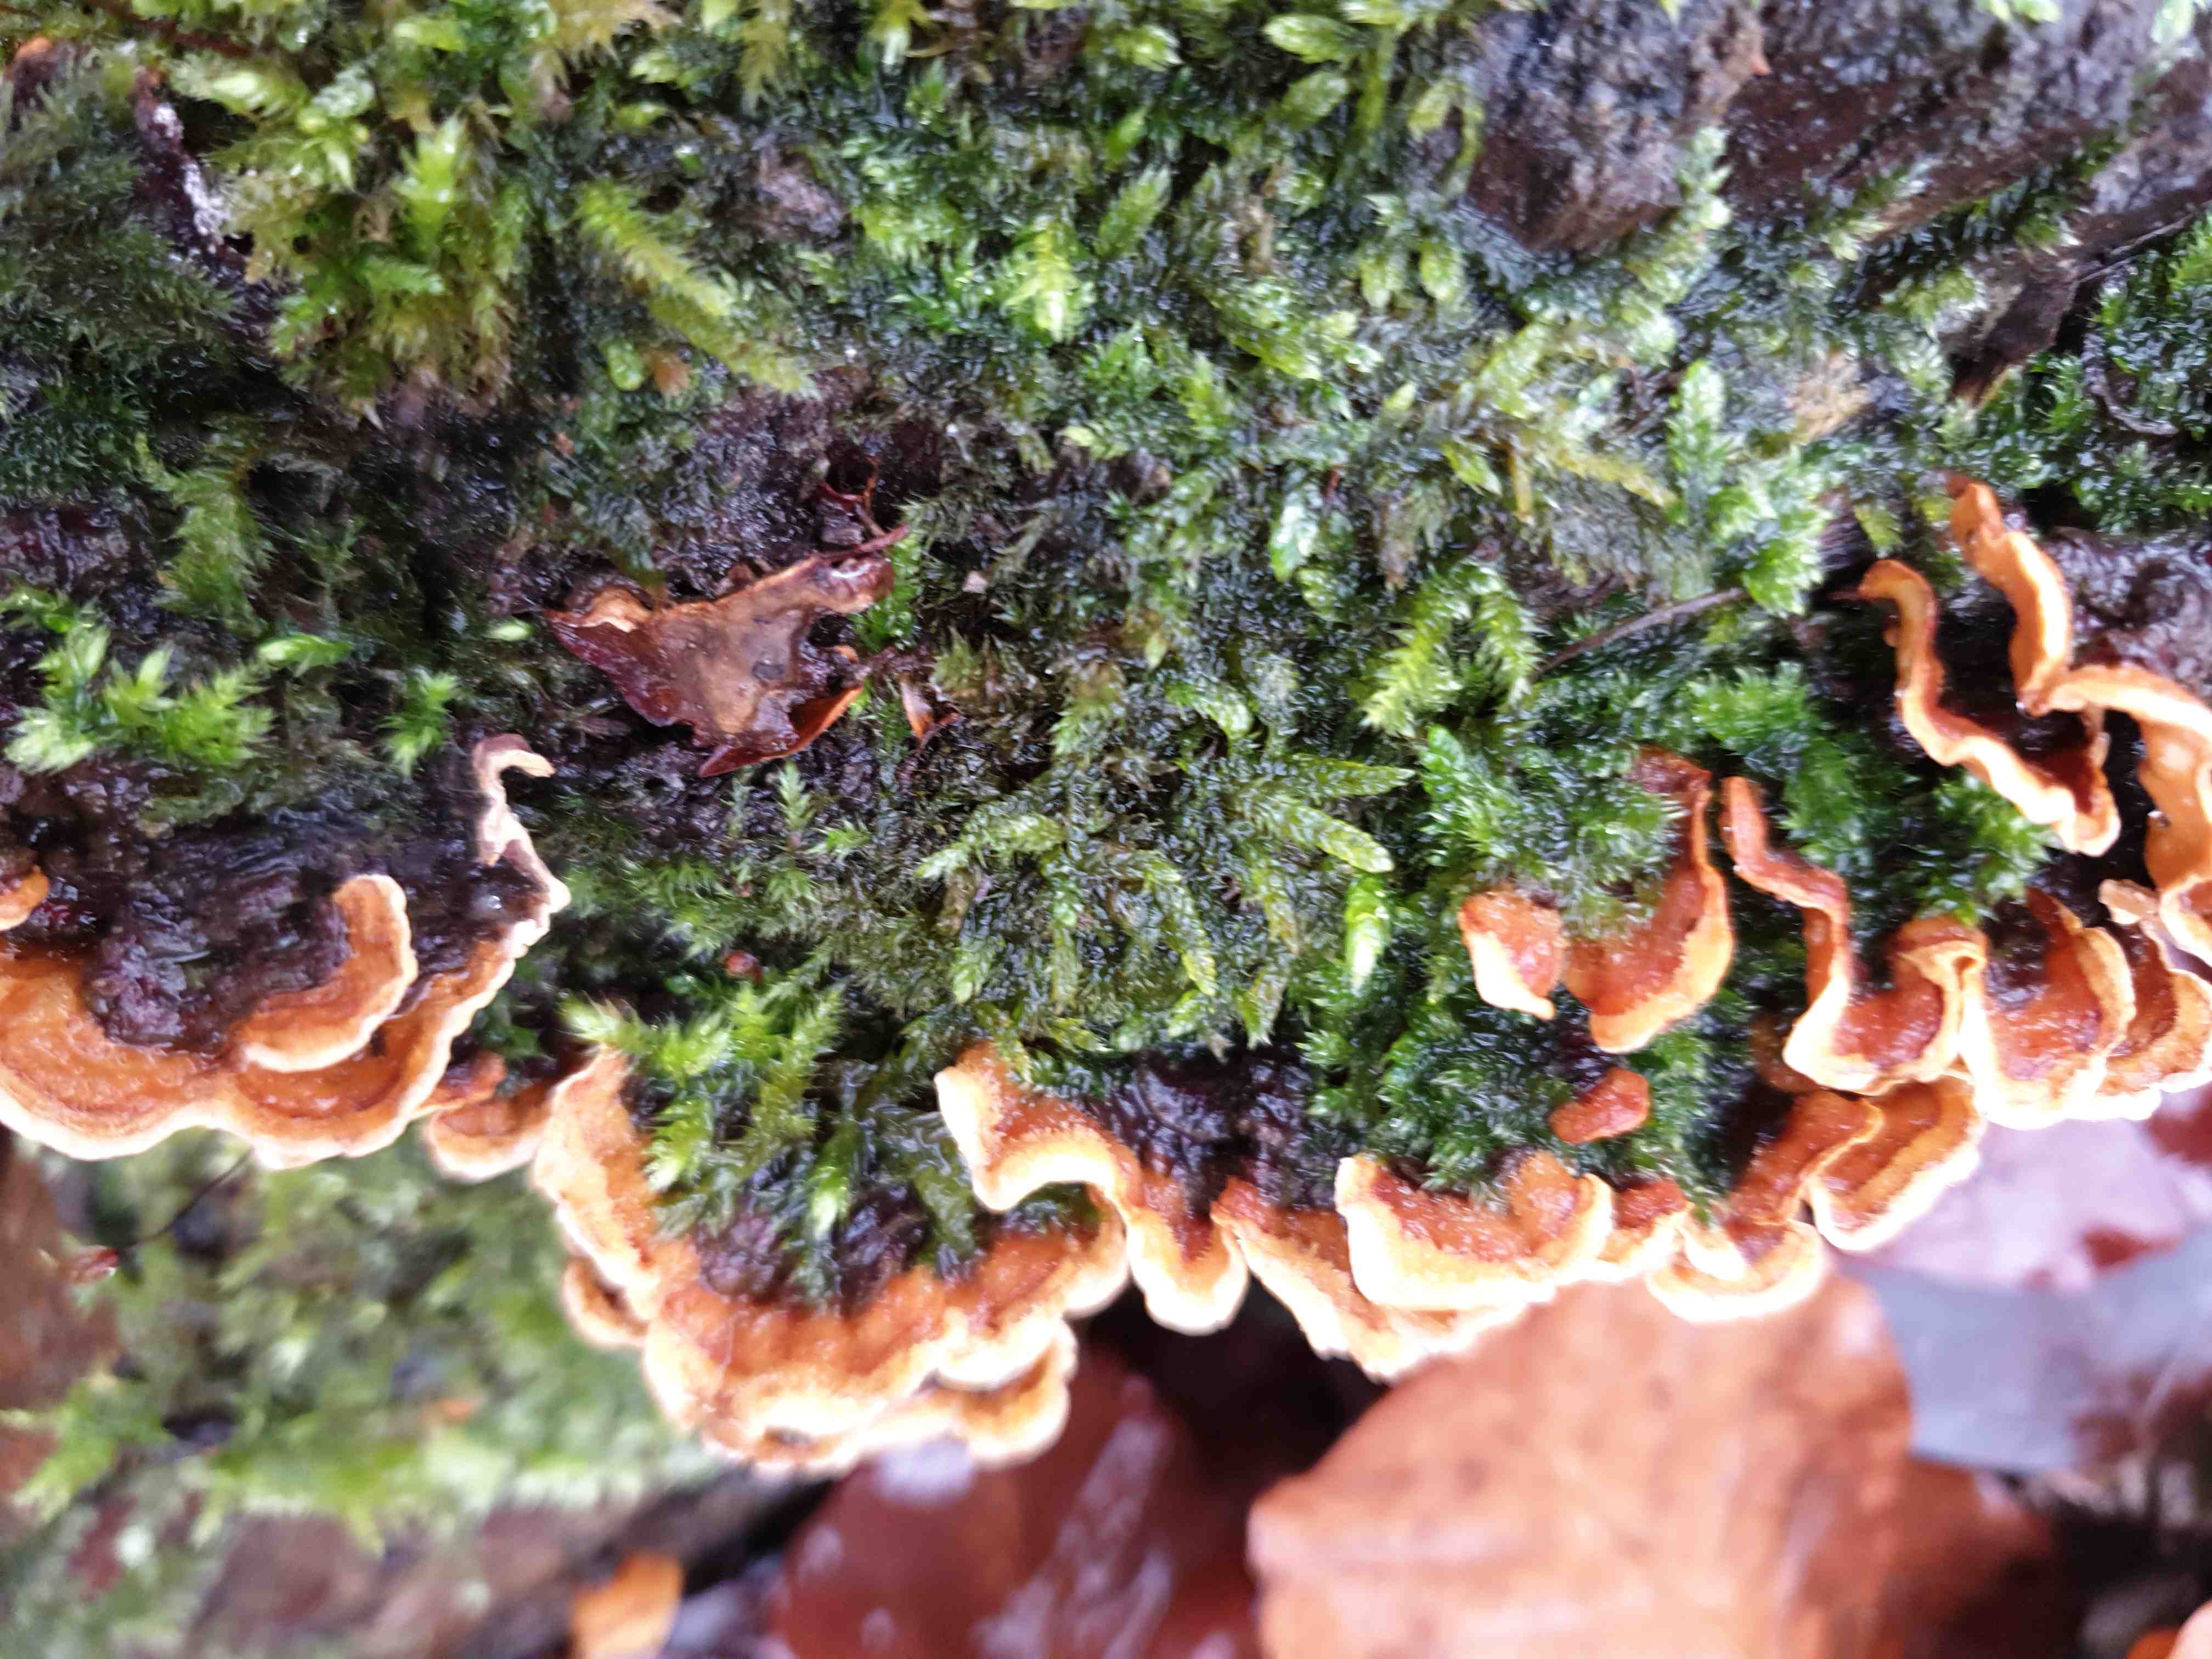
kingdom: Fungi
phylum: Basidiomycota
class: Agaricomycetes
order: Russulales
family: Stereaceae
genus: Stereum
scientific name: Stereum hirsutum
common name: håret lædersvamp
